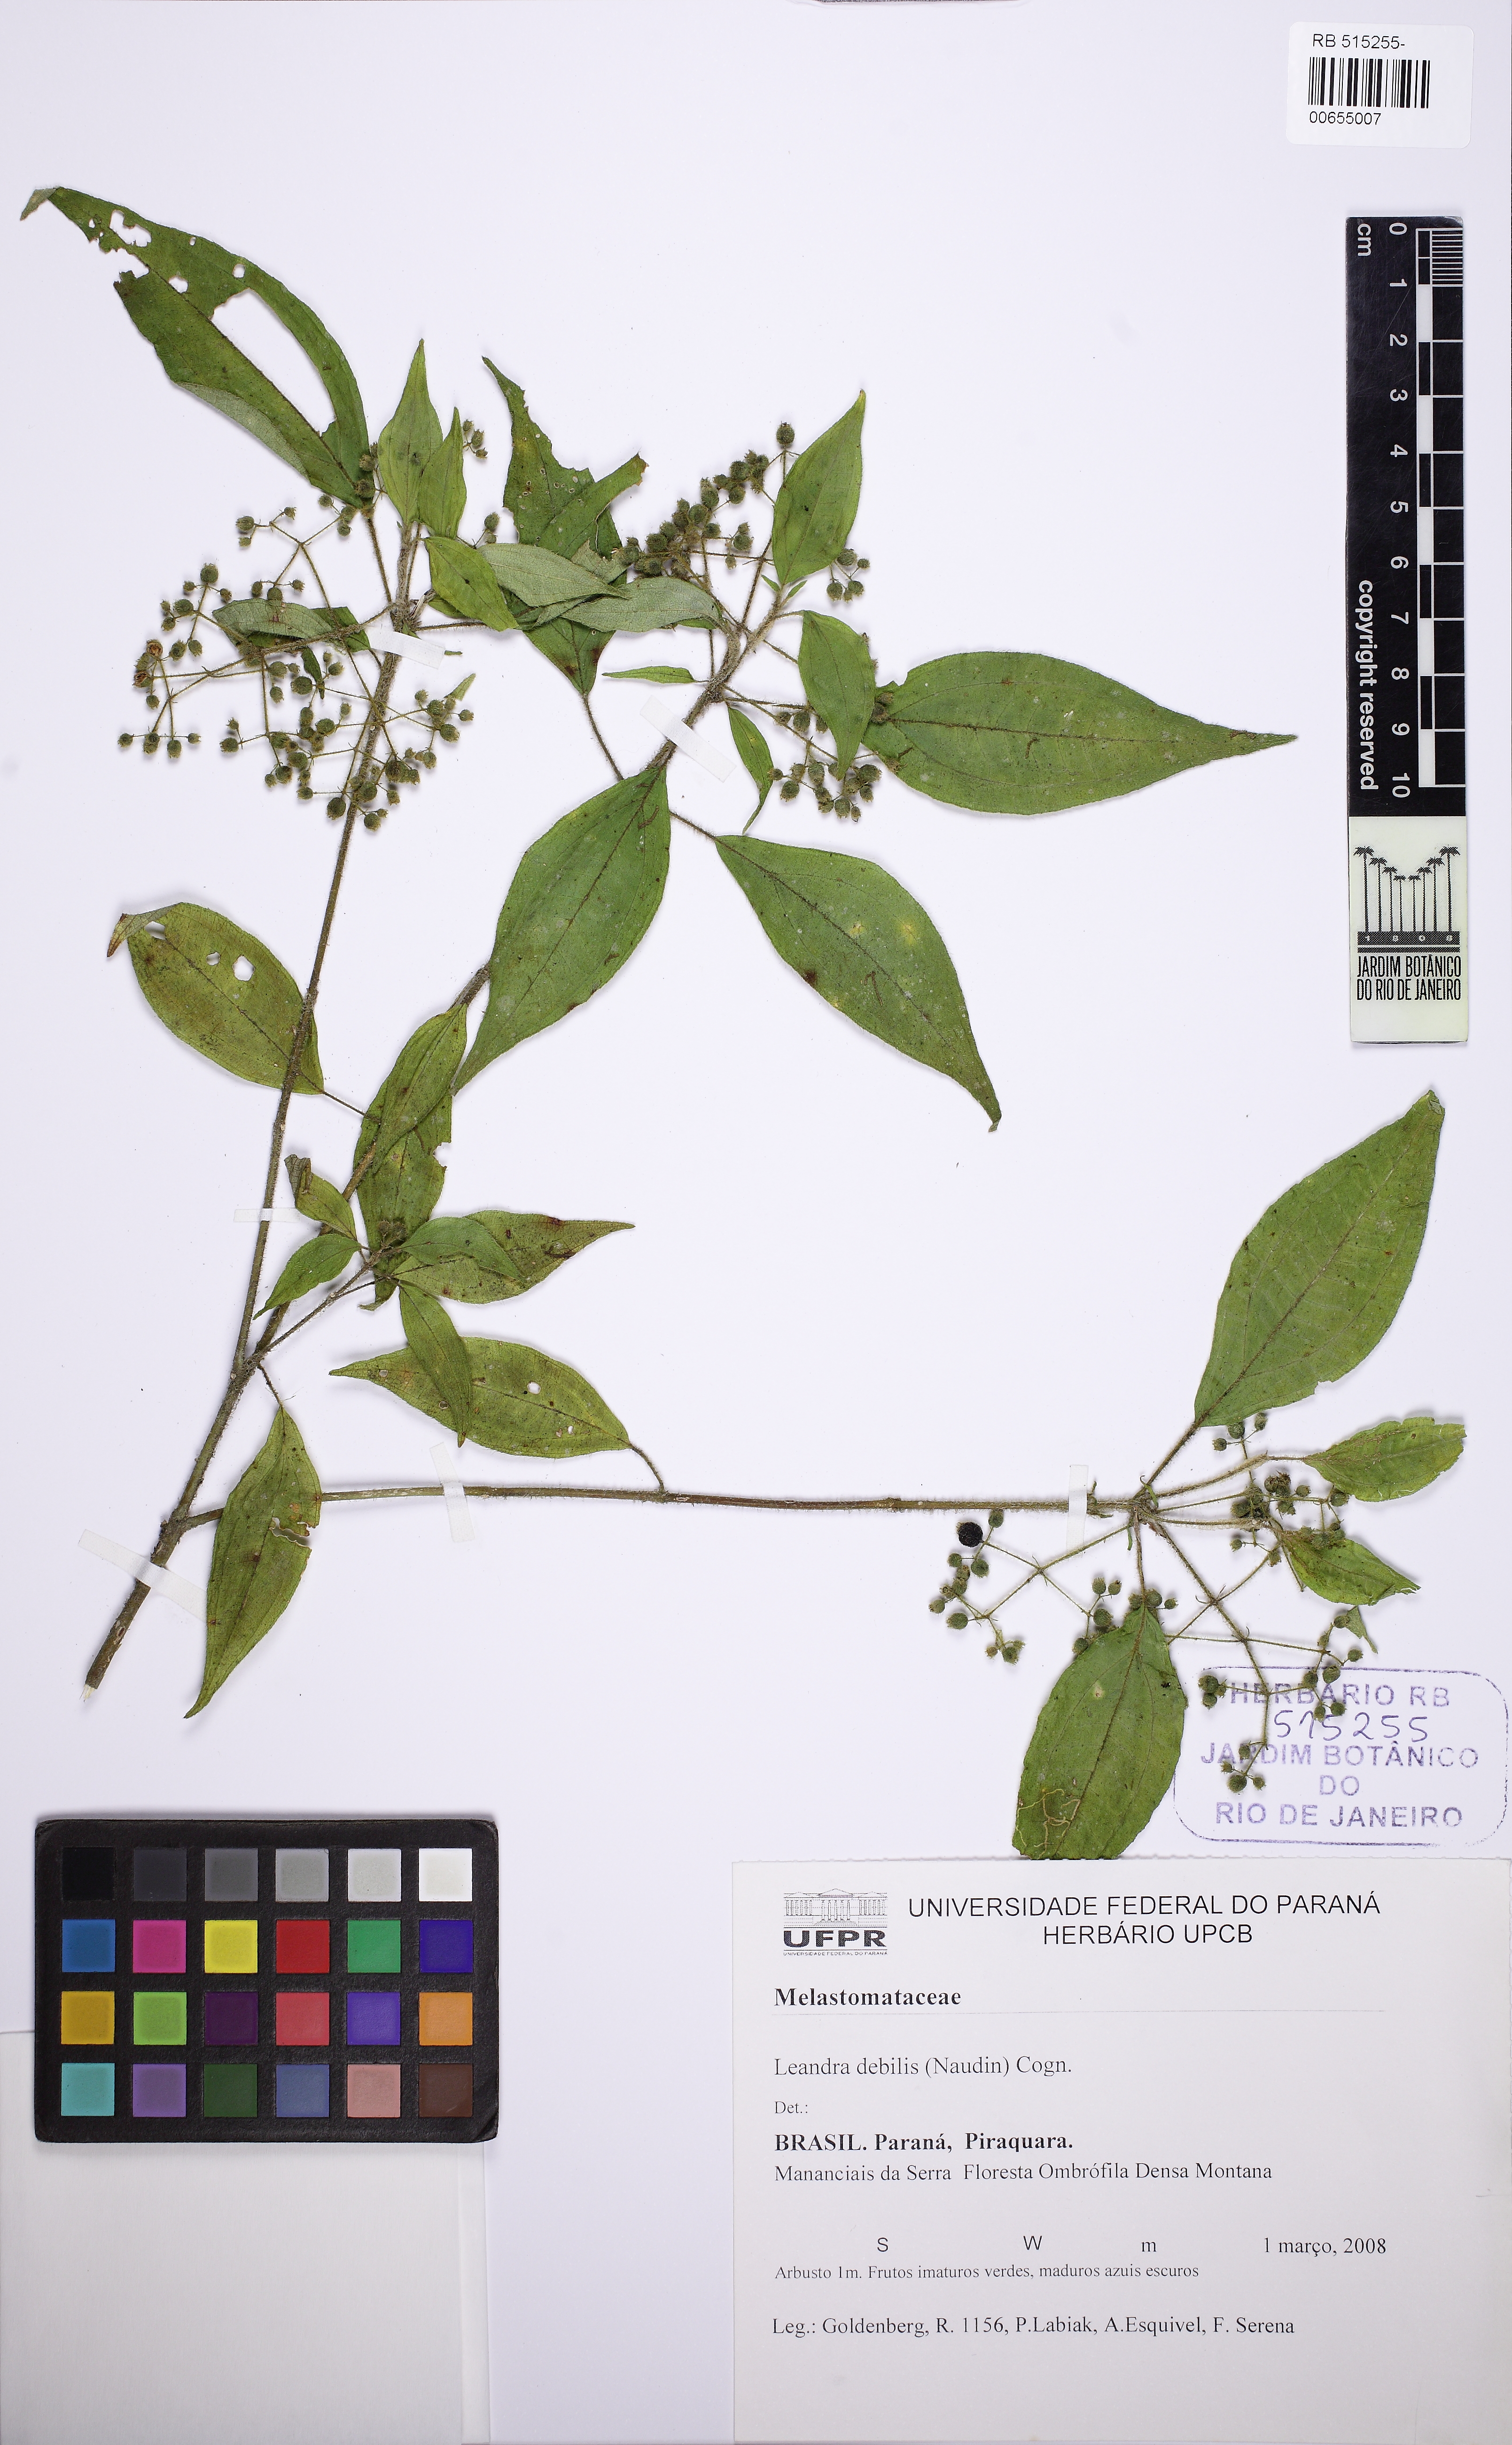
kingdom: Plantae
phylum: Tracheophyta
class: Magnoliopsida
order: Myrtales
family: Melastomataceae
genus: Miconia
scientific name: Miconia leadebilis
